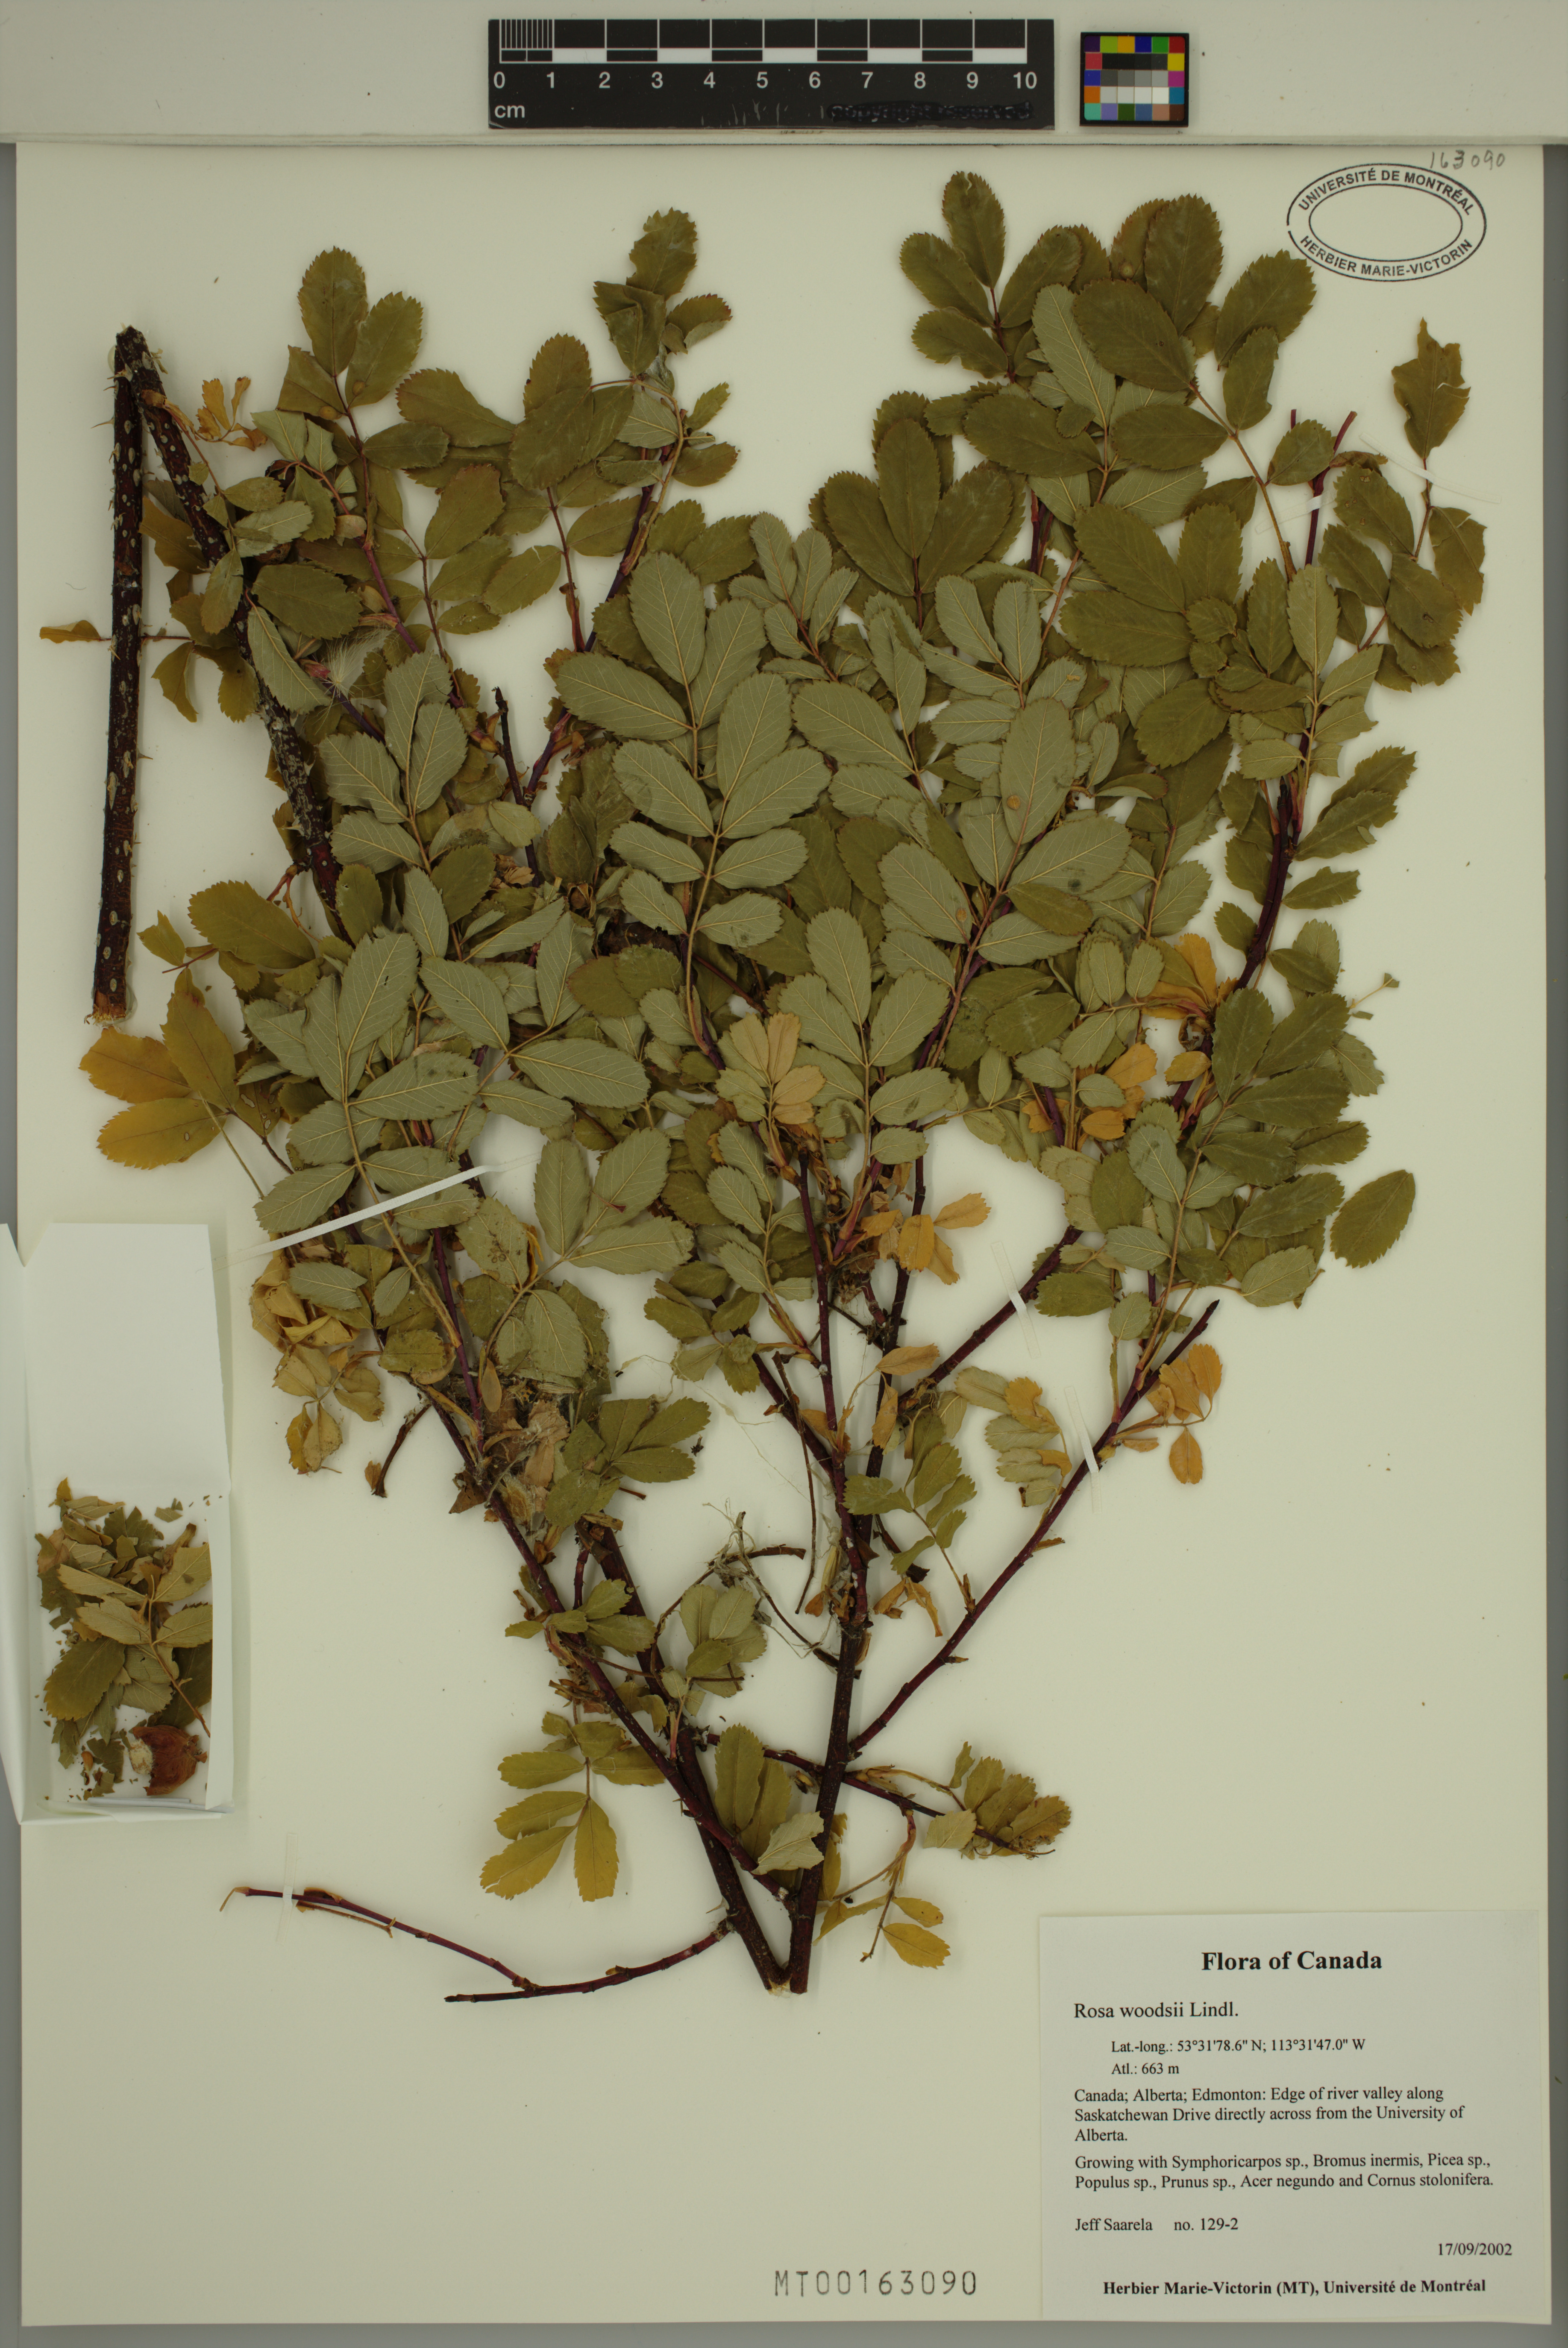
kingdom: Plantae
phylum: Tracheophyta
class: Magnoliopsida
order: Rosales
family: Rosaceae
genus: Rosa
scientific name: Rosa woodsii
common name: Woods's rose
